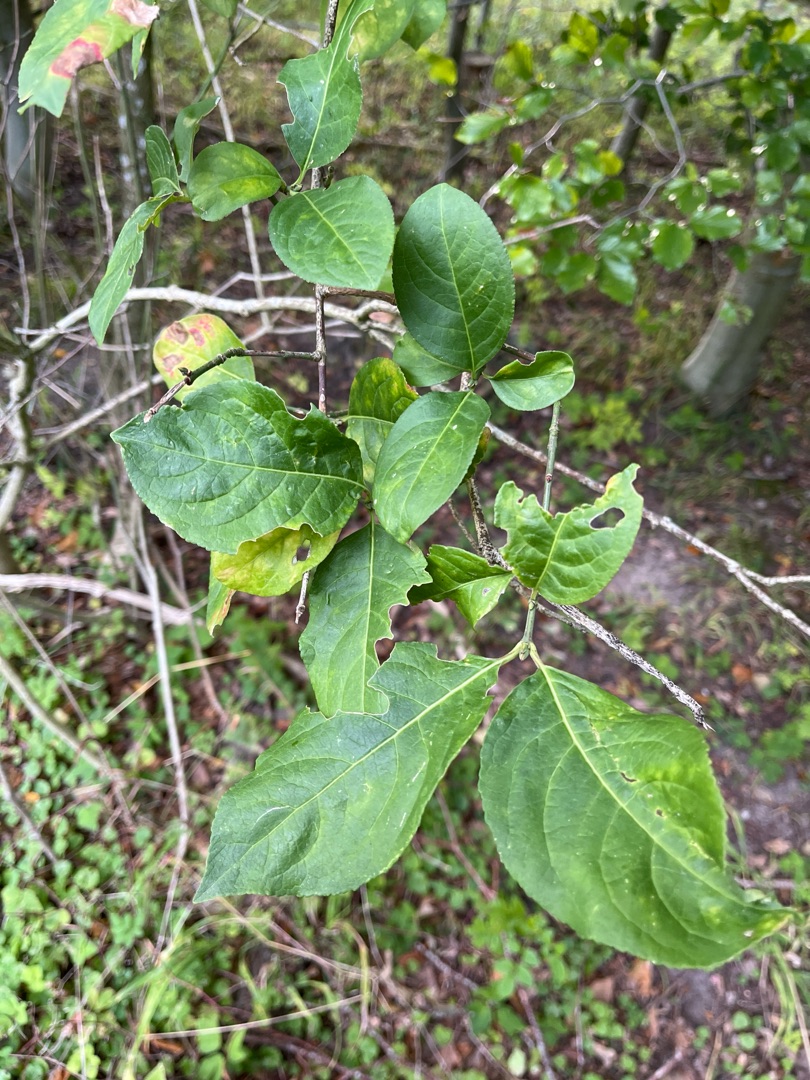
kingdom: Plantae
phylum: Tracheophyta
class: Magnoliopsida
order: Celastrales
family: Celastraceae
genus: Euonymus
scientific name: Euonymus europaeus
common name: Benved
